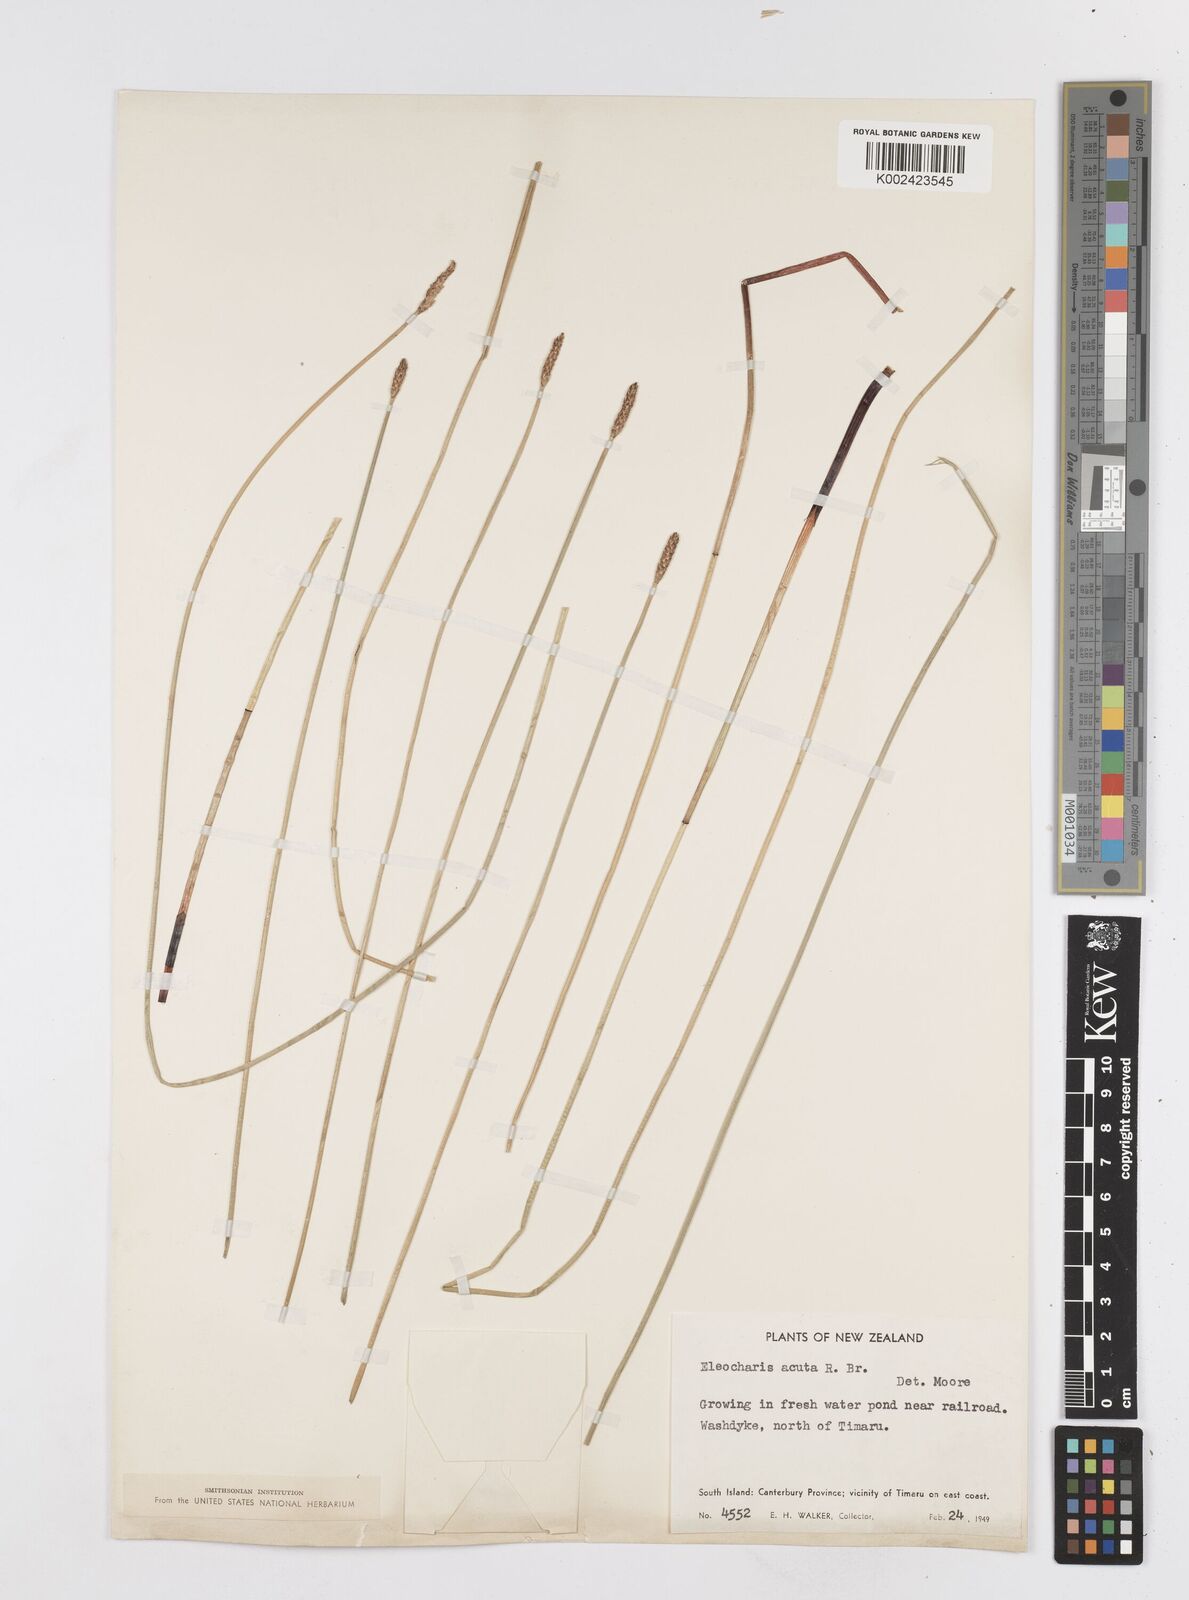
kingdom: Plantae
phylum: Tracheophyta
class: Liliopsida
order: Poales
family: Cyperaceae
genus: Eleocharis
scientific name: Eleocharis acuta
